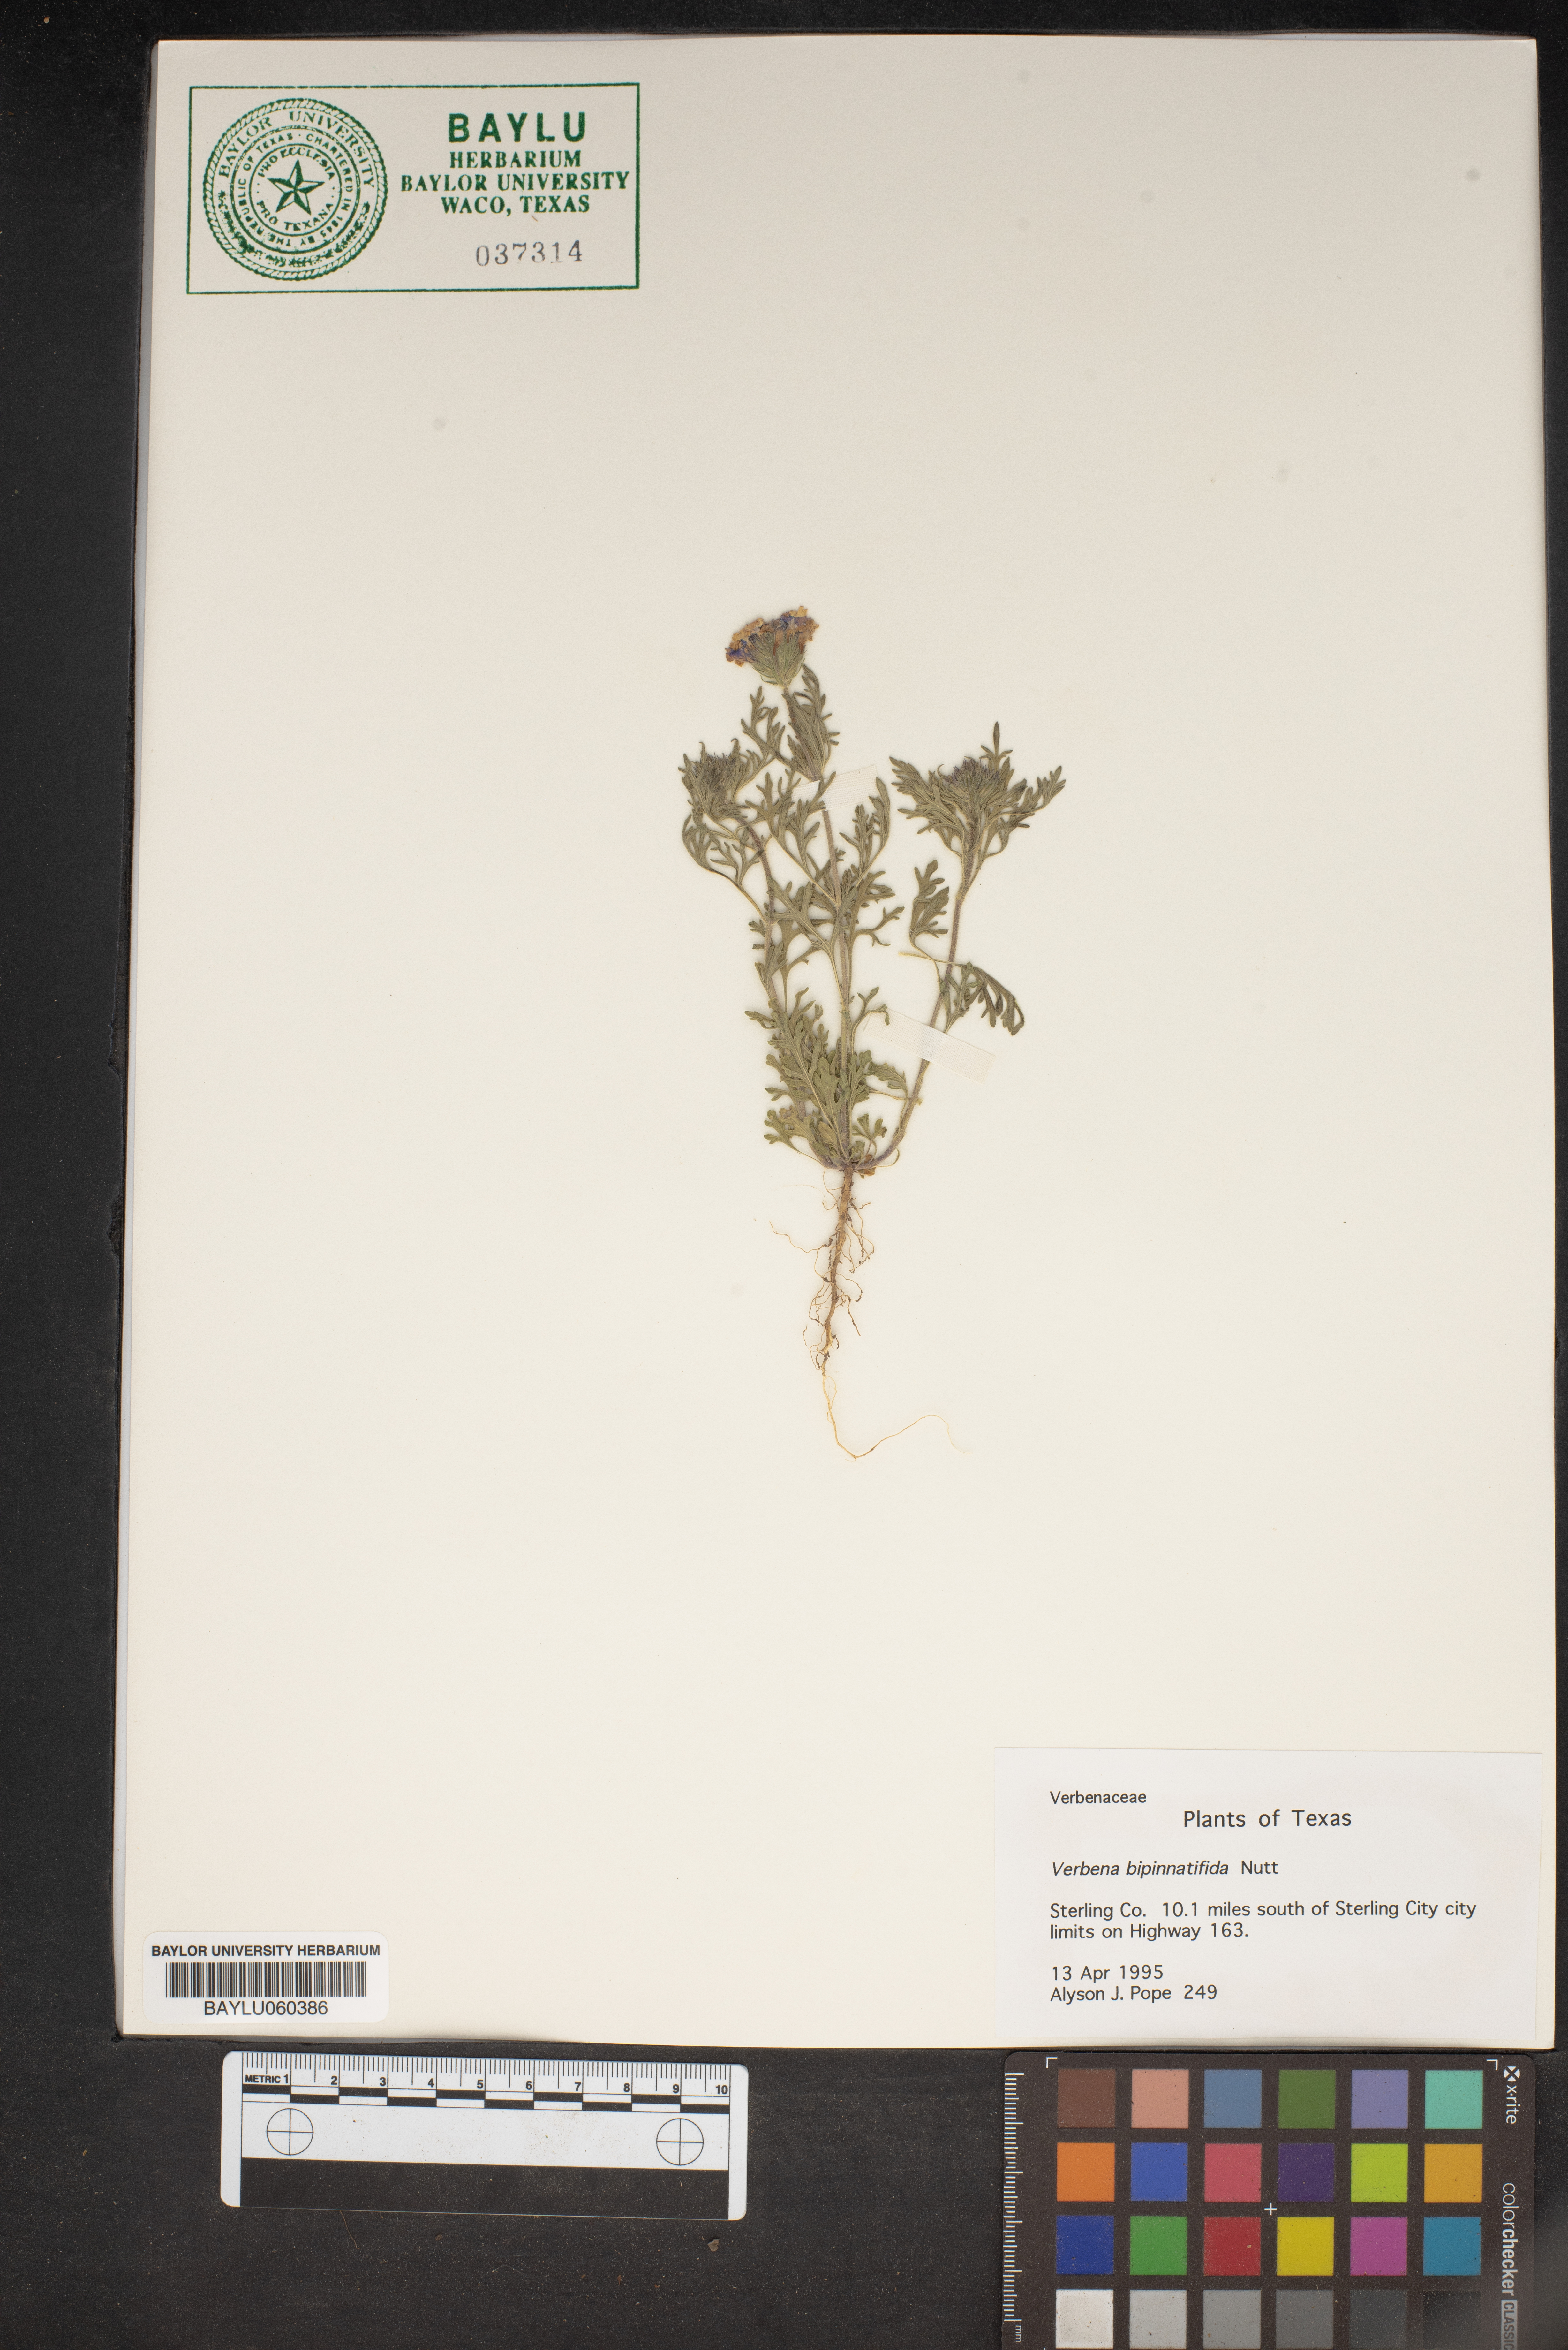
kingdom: Plantae
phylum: Tracheophyta
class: Magnoliopsida
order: Lamiales
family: Verbenaceae
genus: Verbena
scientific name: Verbena bipinnatifida
